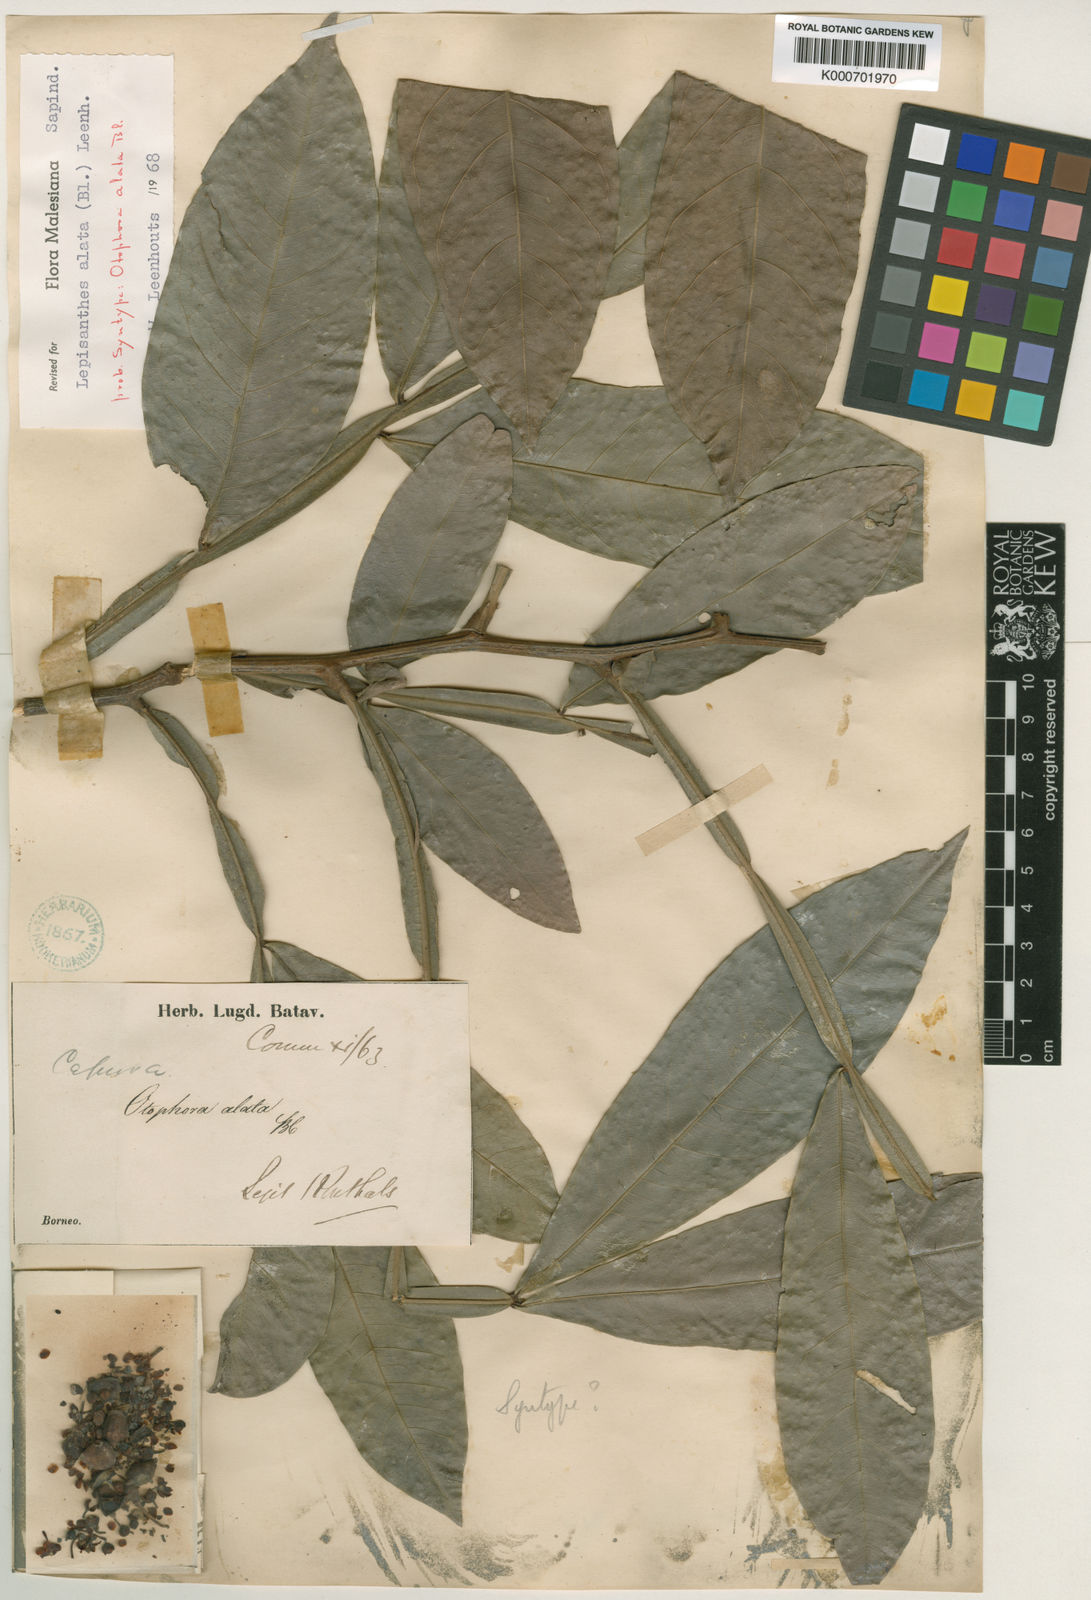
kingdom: Plantae
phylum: Tracheophyta
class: Magnoliopsida
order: Sapindales
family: Sapindaceae
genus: Lepisanthes
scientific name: Lepisanthes alata
